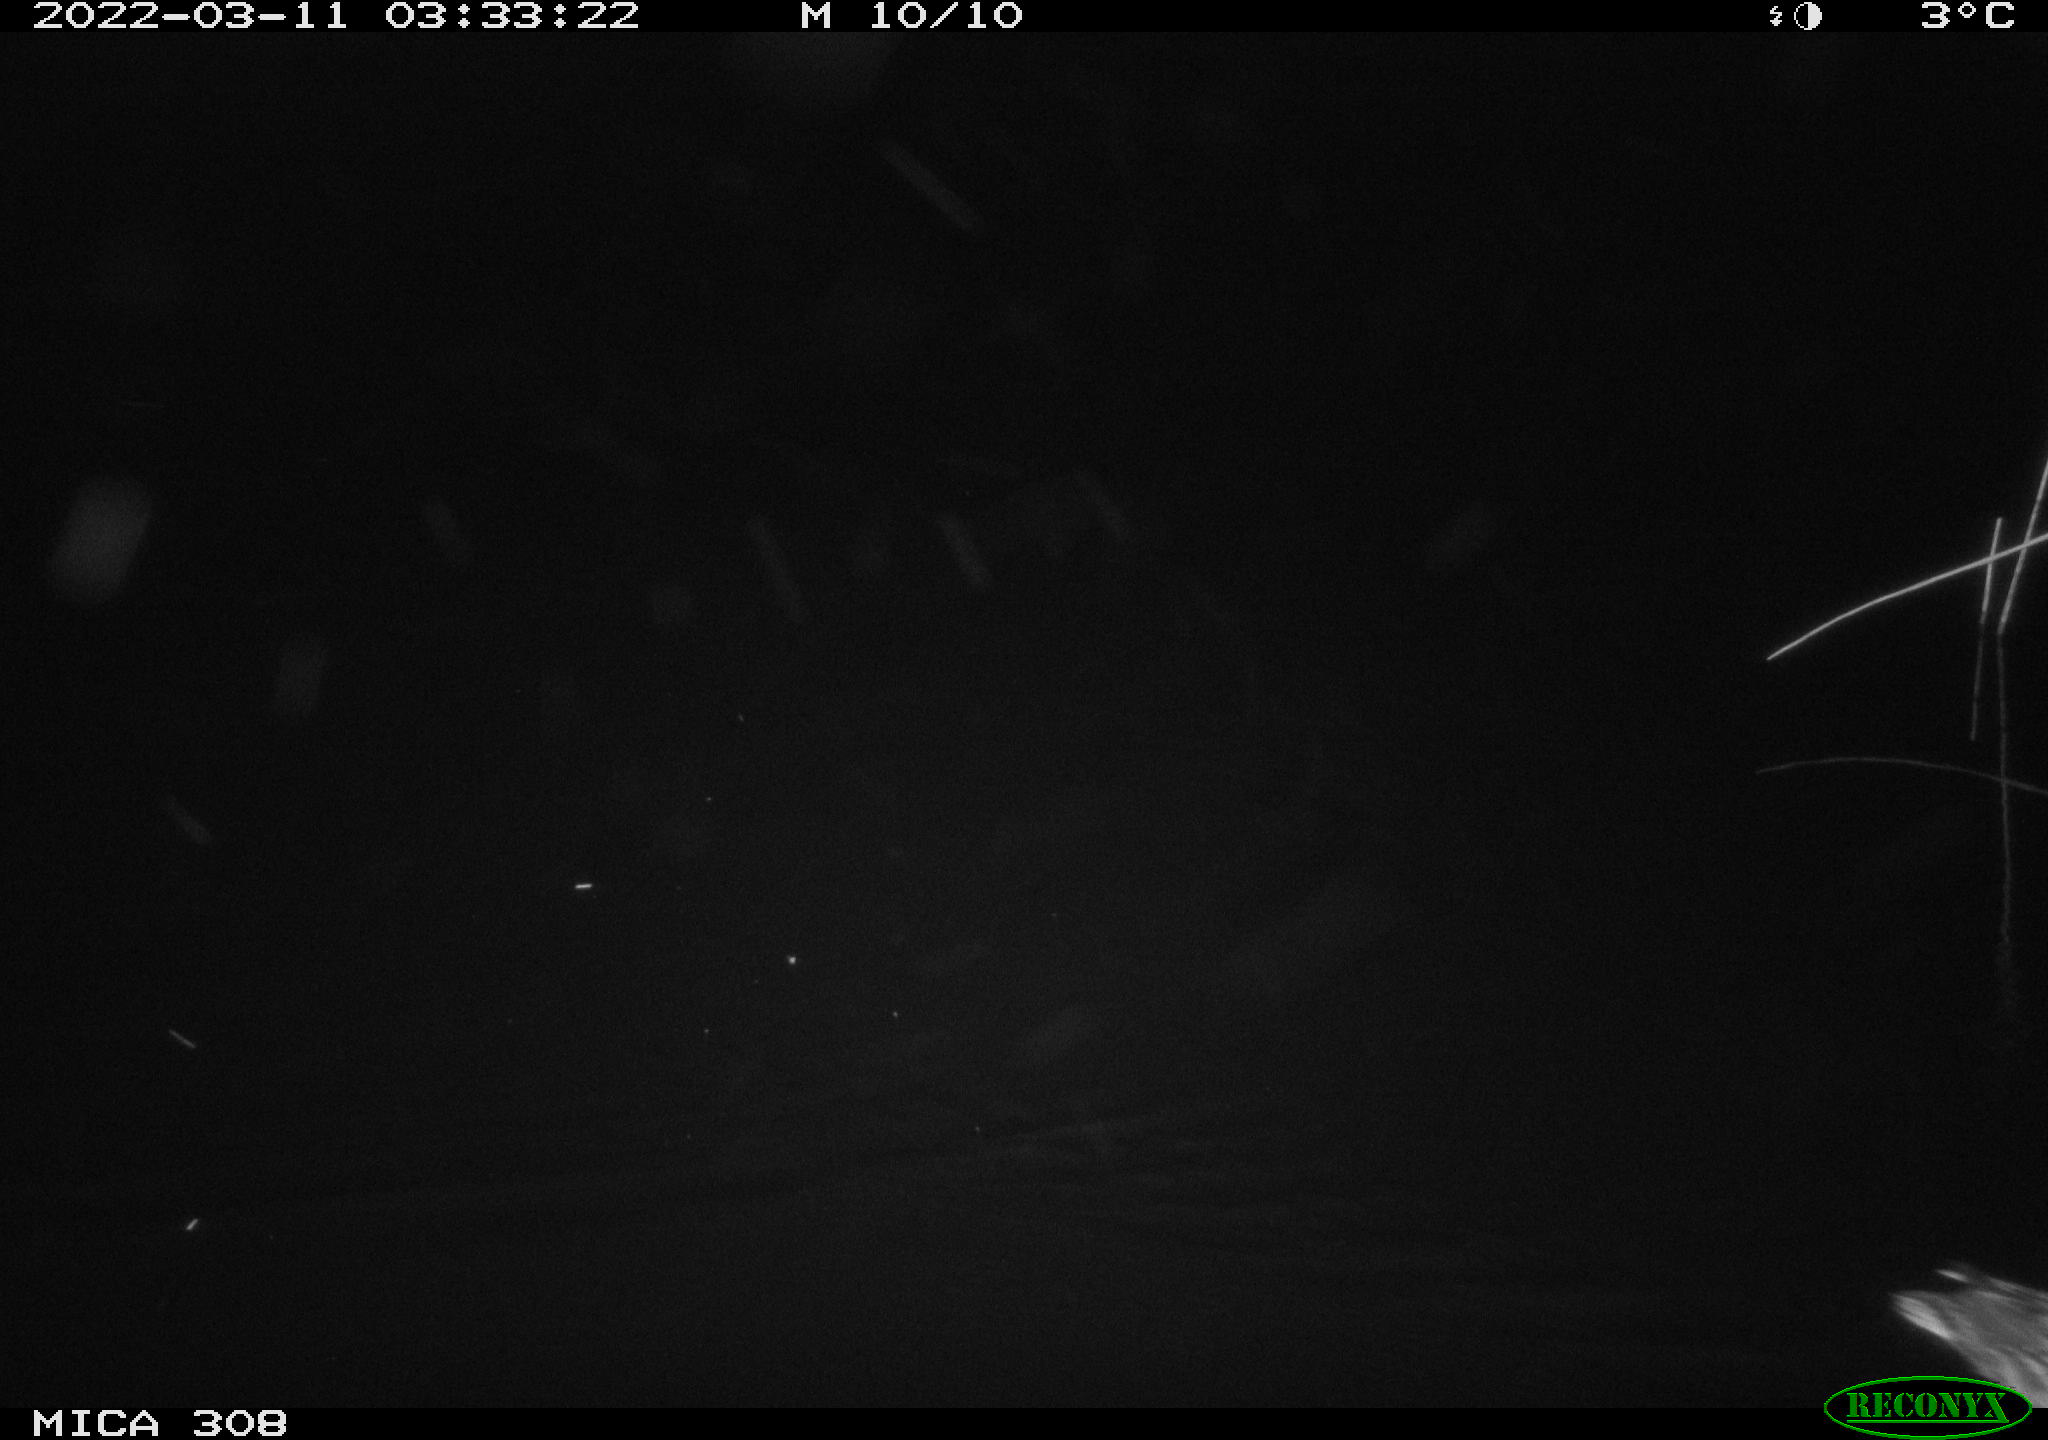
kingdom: Animalia
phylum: Chordata
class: Aves
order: Anseriformes
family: Anatidae
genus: Anas
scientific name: Anas platyrhynchos
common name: Mallard
